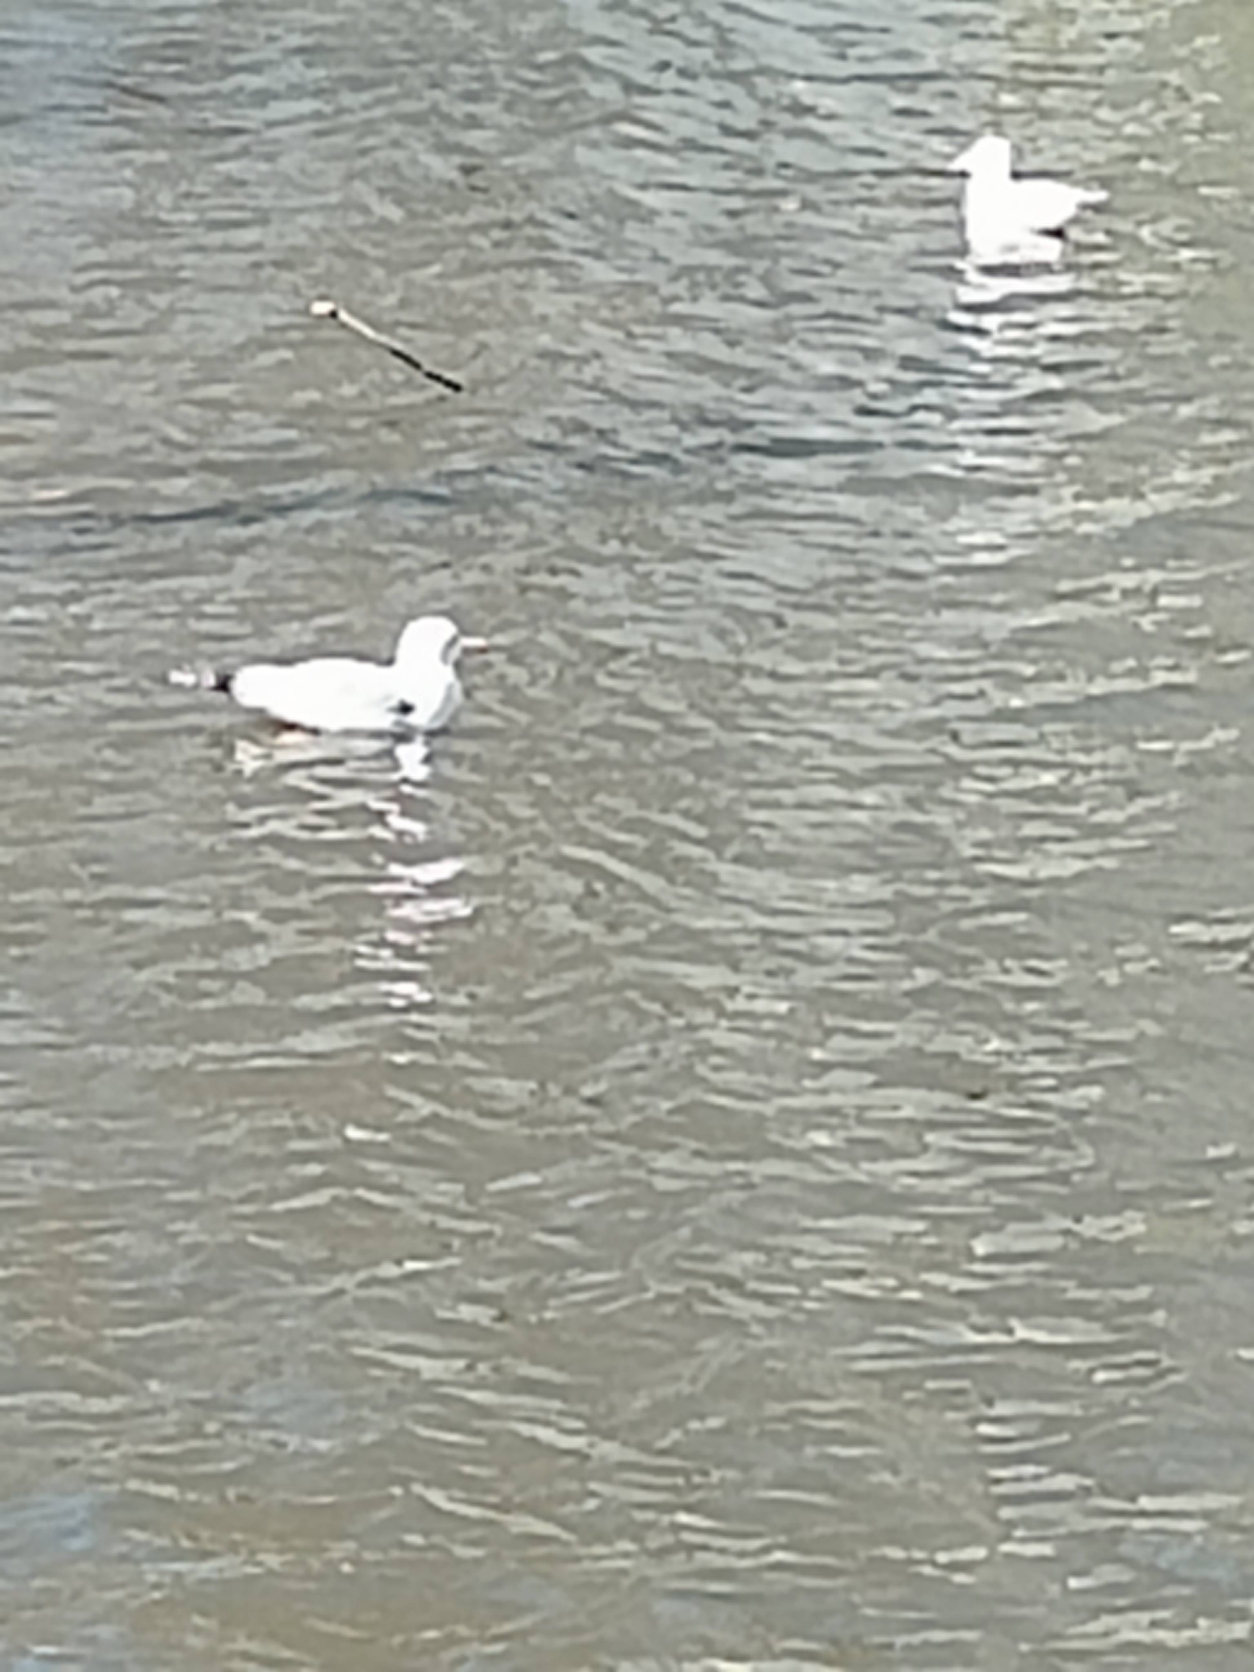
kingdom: Animalia
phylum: Chordata
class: Aves
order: Charadriiformes
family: Laridae
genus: Larus
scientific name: Larus canus
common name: Stormmåge
